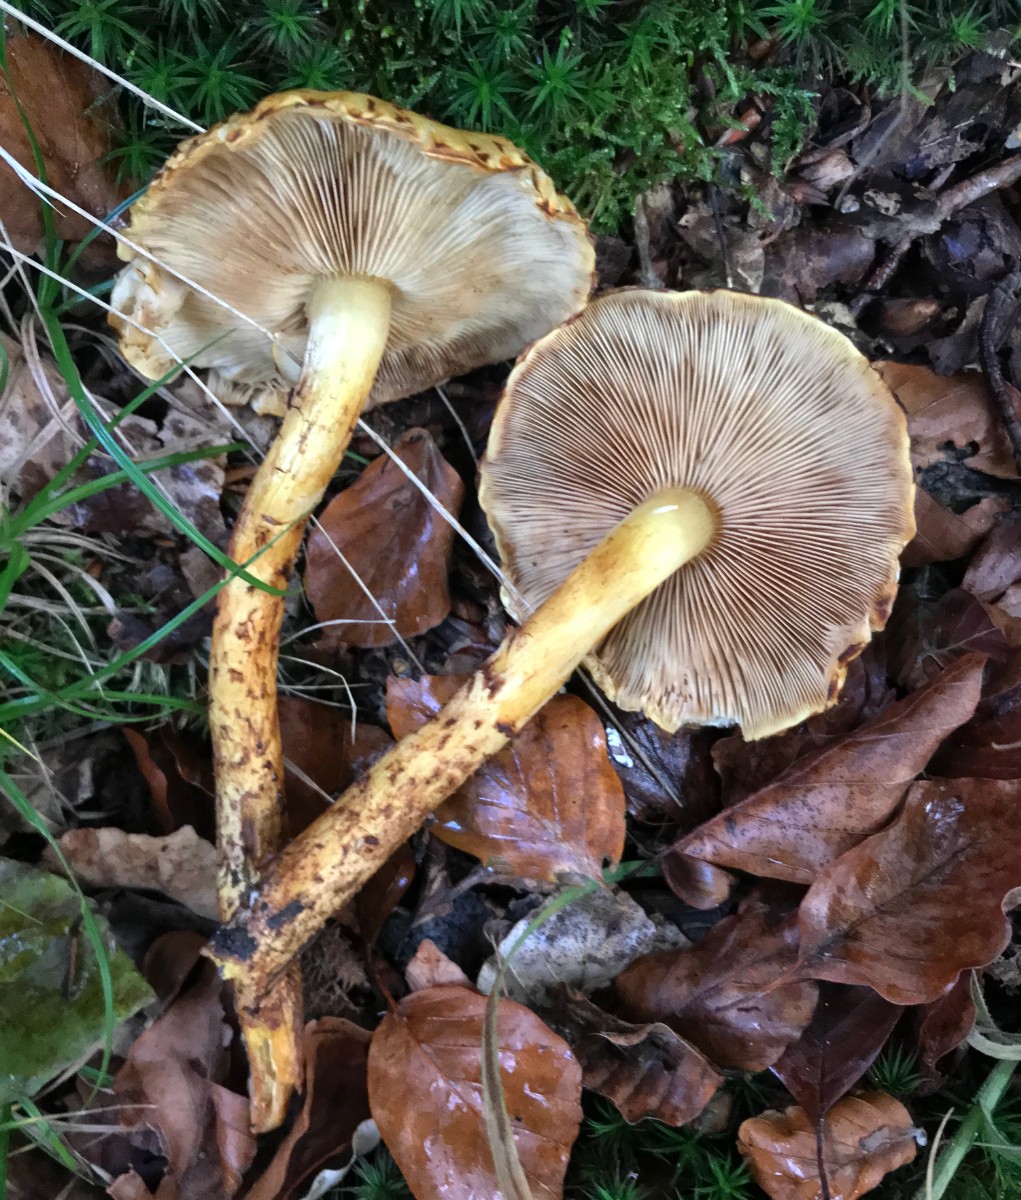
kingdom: Fungi
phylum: Basidiomycota
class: Agaricomycetes
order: Agaricales
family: Strophariaceae
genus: Pholiota
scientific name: Pholiota jahnii
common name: slimet skælhat
